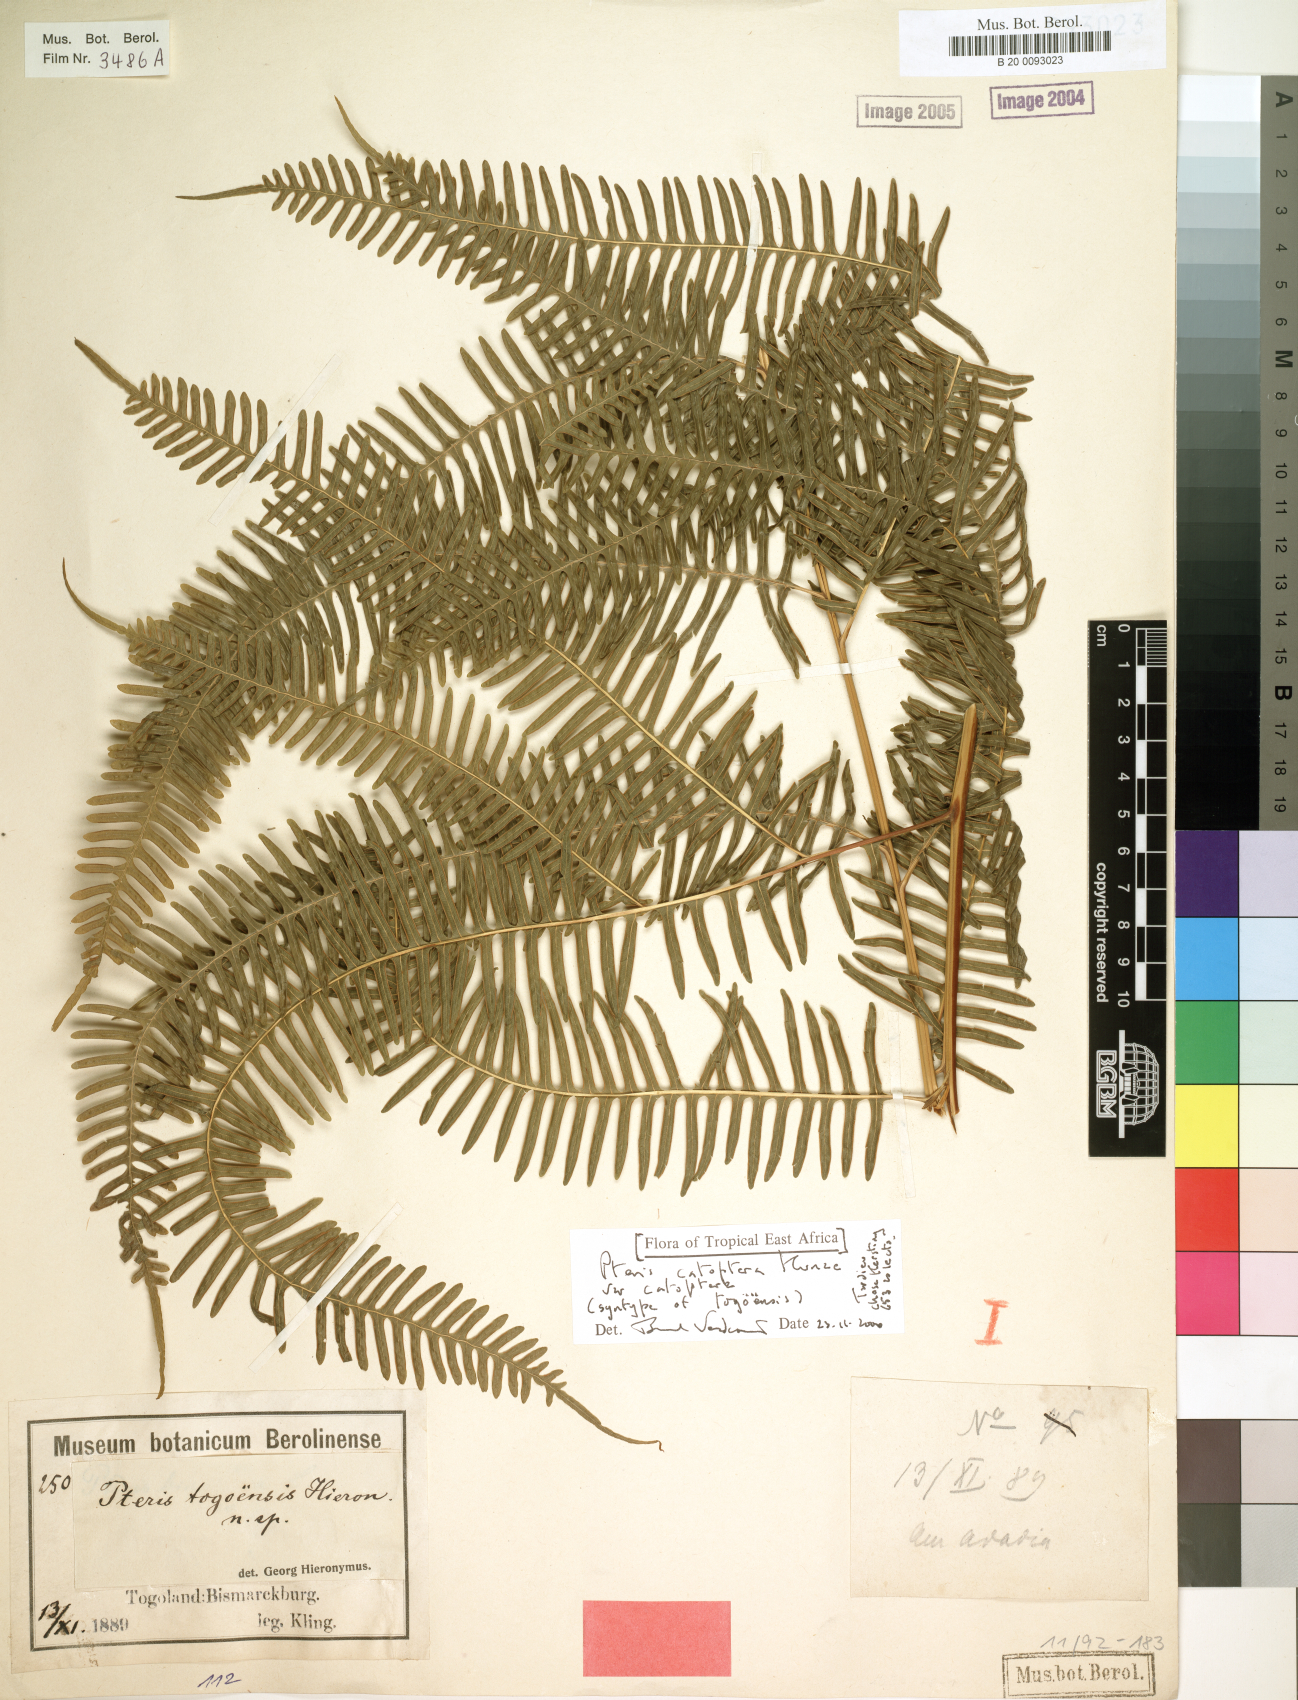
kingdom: Plantae
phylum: Tracheophyta
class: Polypodiopsida
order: Polypodiales
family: Pteridaceae
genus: Pteris
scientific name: Pteris togoensis
